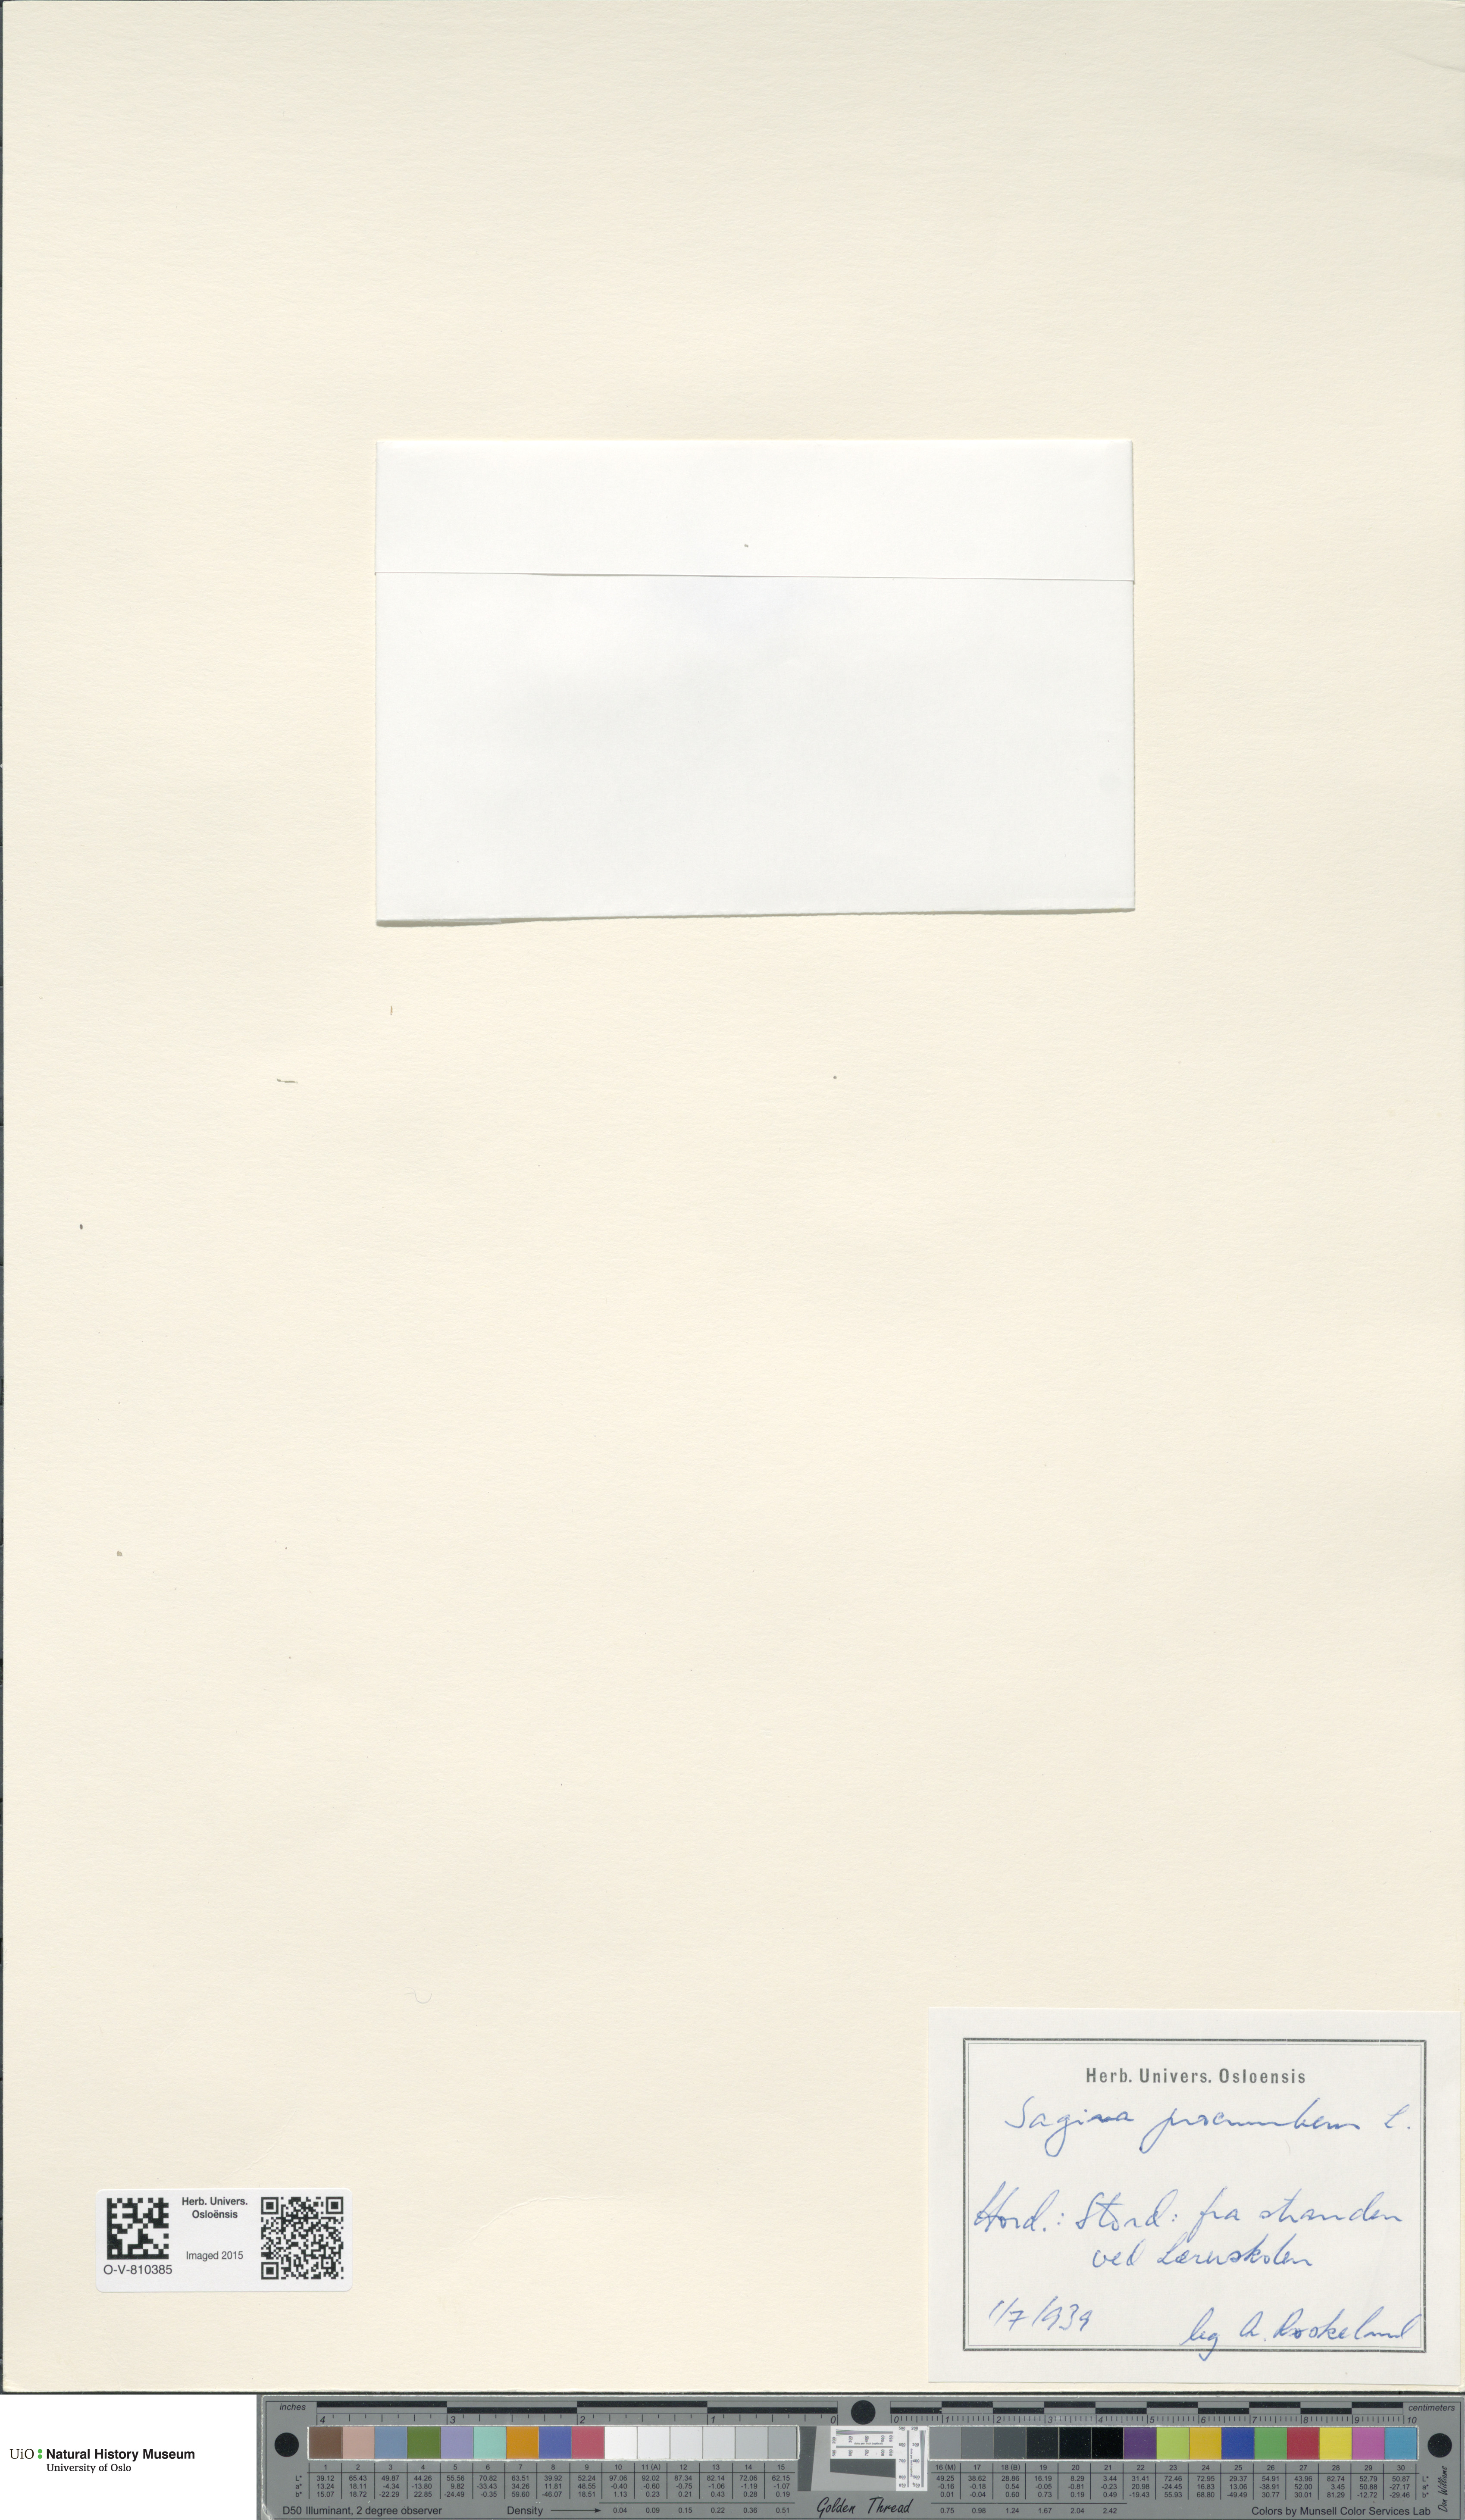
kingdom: Plantae
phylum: Tracheophyta
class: Magnoliopsida
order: Caryophyllales
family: Caryophyllaceae
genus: Sagina
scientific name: Sagina procumbens
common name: Procumbent pearlwort
